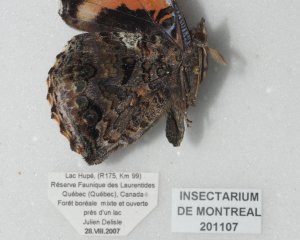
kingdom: Animalia
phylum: Arthropoda
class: Insecta
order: Lepidoptera
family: Nymphalidae
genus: Vanessa
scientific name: Vanessa atalanta
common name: Red Admiral
